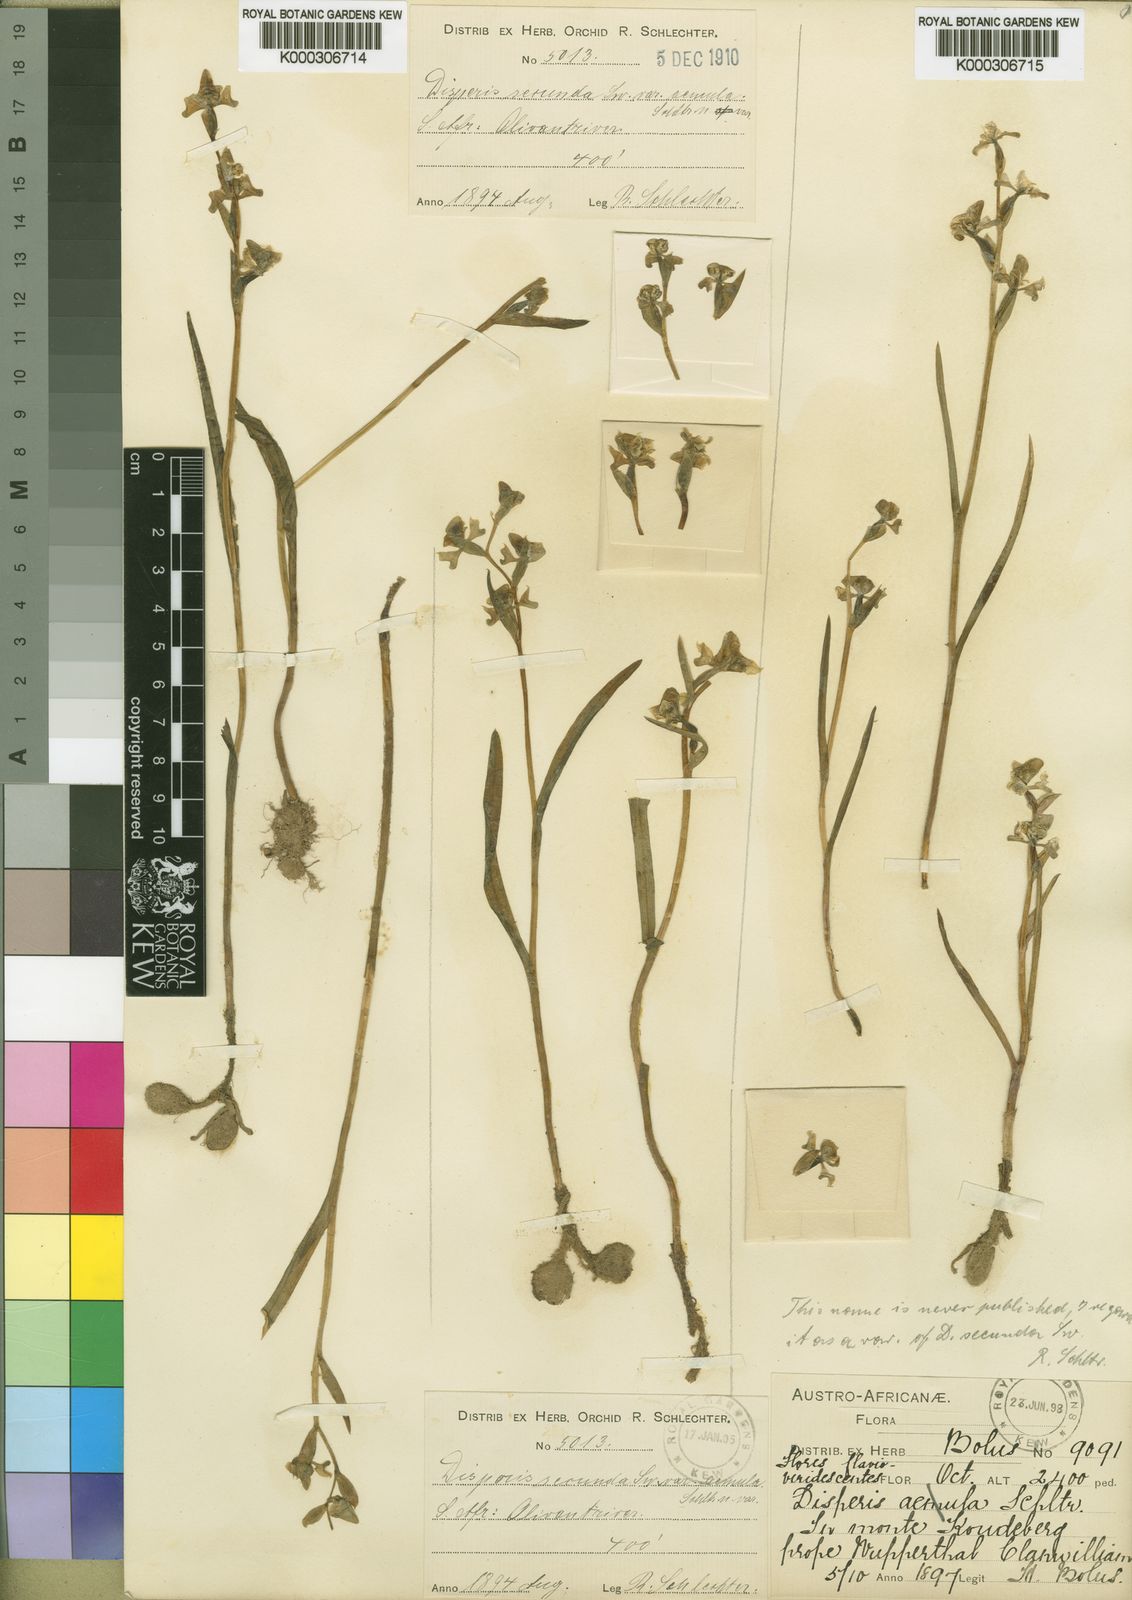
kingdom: Plantae
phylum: Tracheophyta
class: Liliopsida
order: Asparagales
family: Orchidaceae
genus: Disperis
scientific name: Disperis circumflexa
